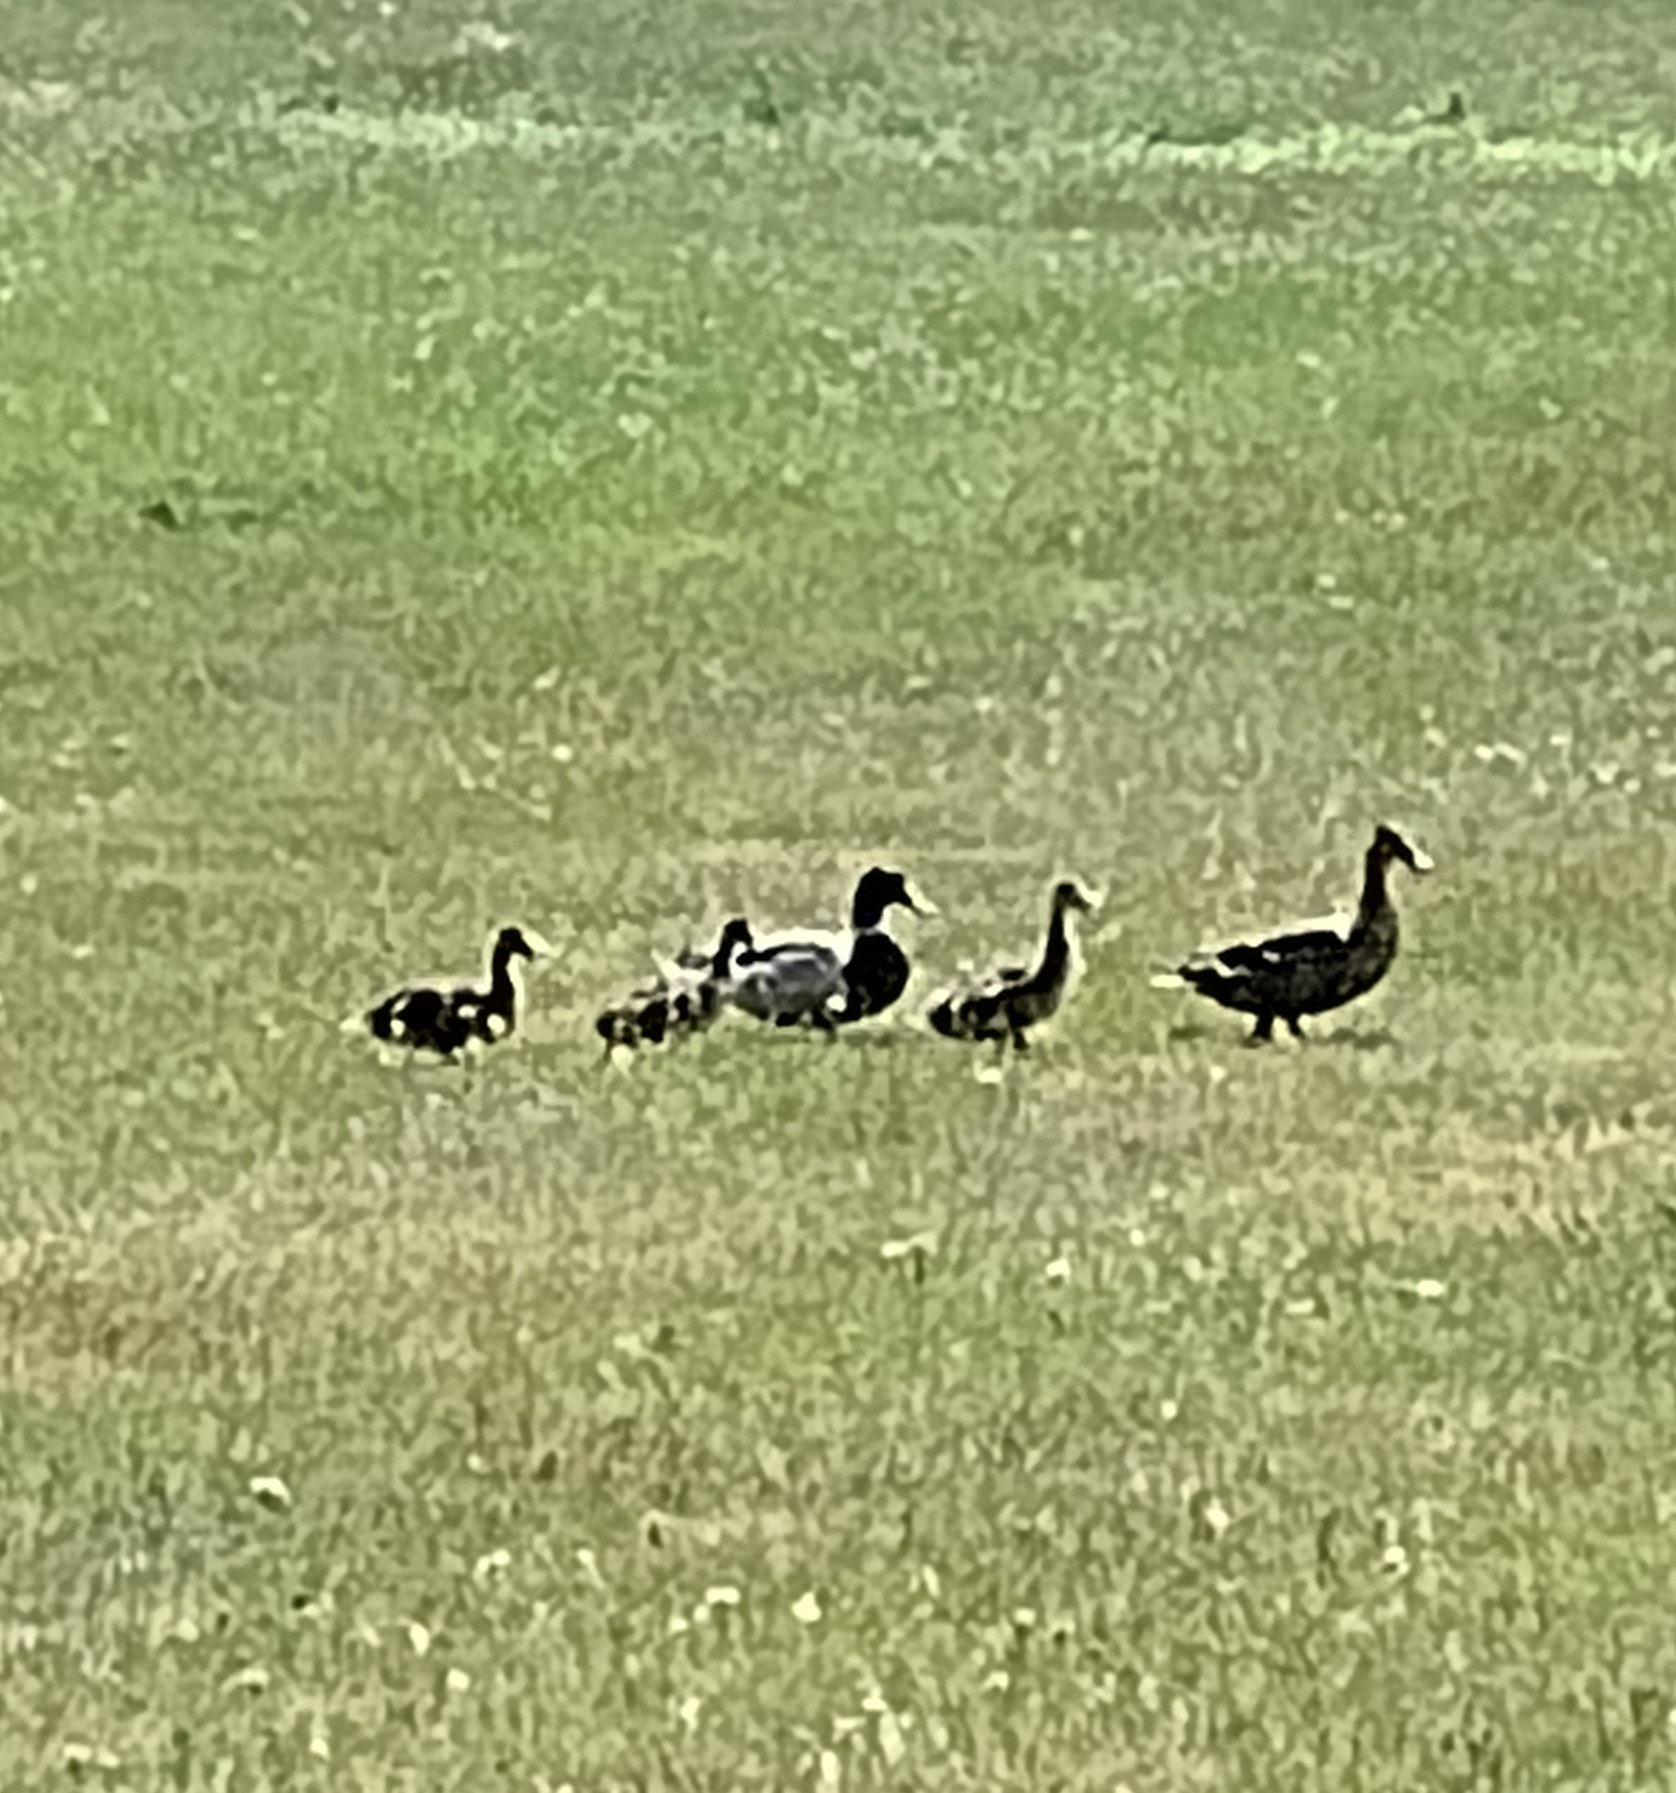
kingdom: Animalia
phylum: Chordata
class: Aves
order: Anseriformes
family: Anatidae
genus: Anas
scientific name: Anas platyrhynchos
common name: Gråand
